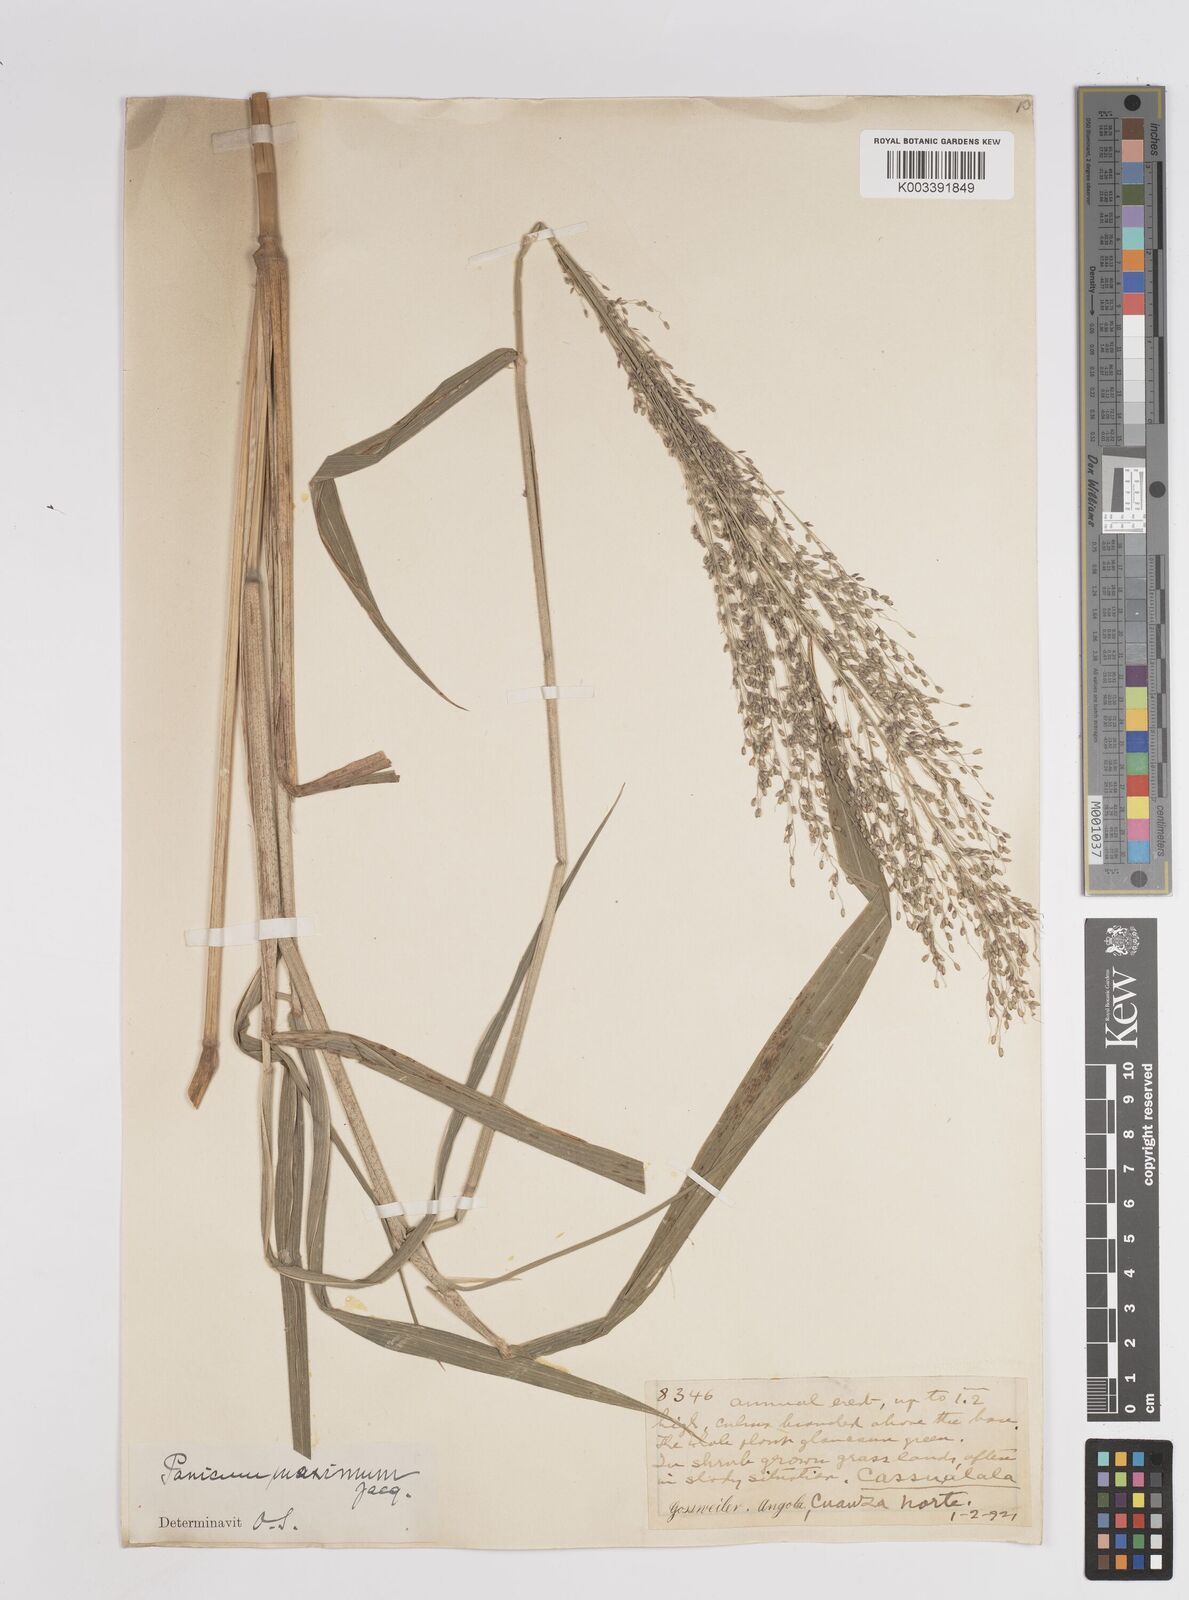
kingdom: Plantae
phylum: Tracheophyta
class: Liliopsida
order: Poales
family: Poaceae
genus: Megathyrsus
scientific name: Megathyrsus maximus
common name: Guineagrass
